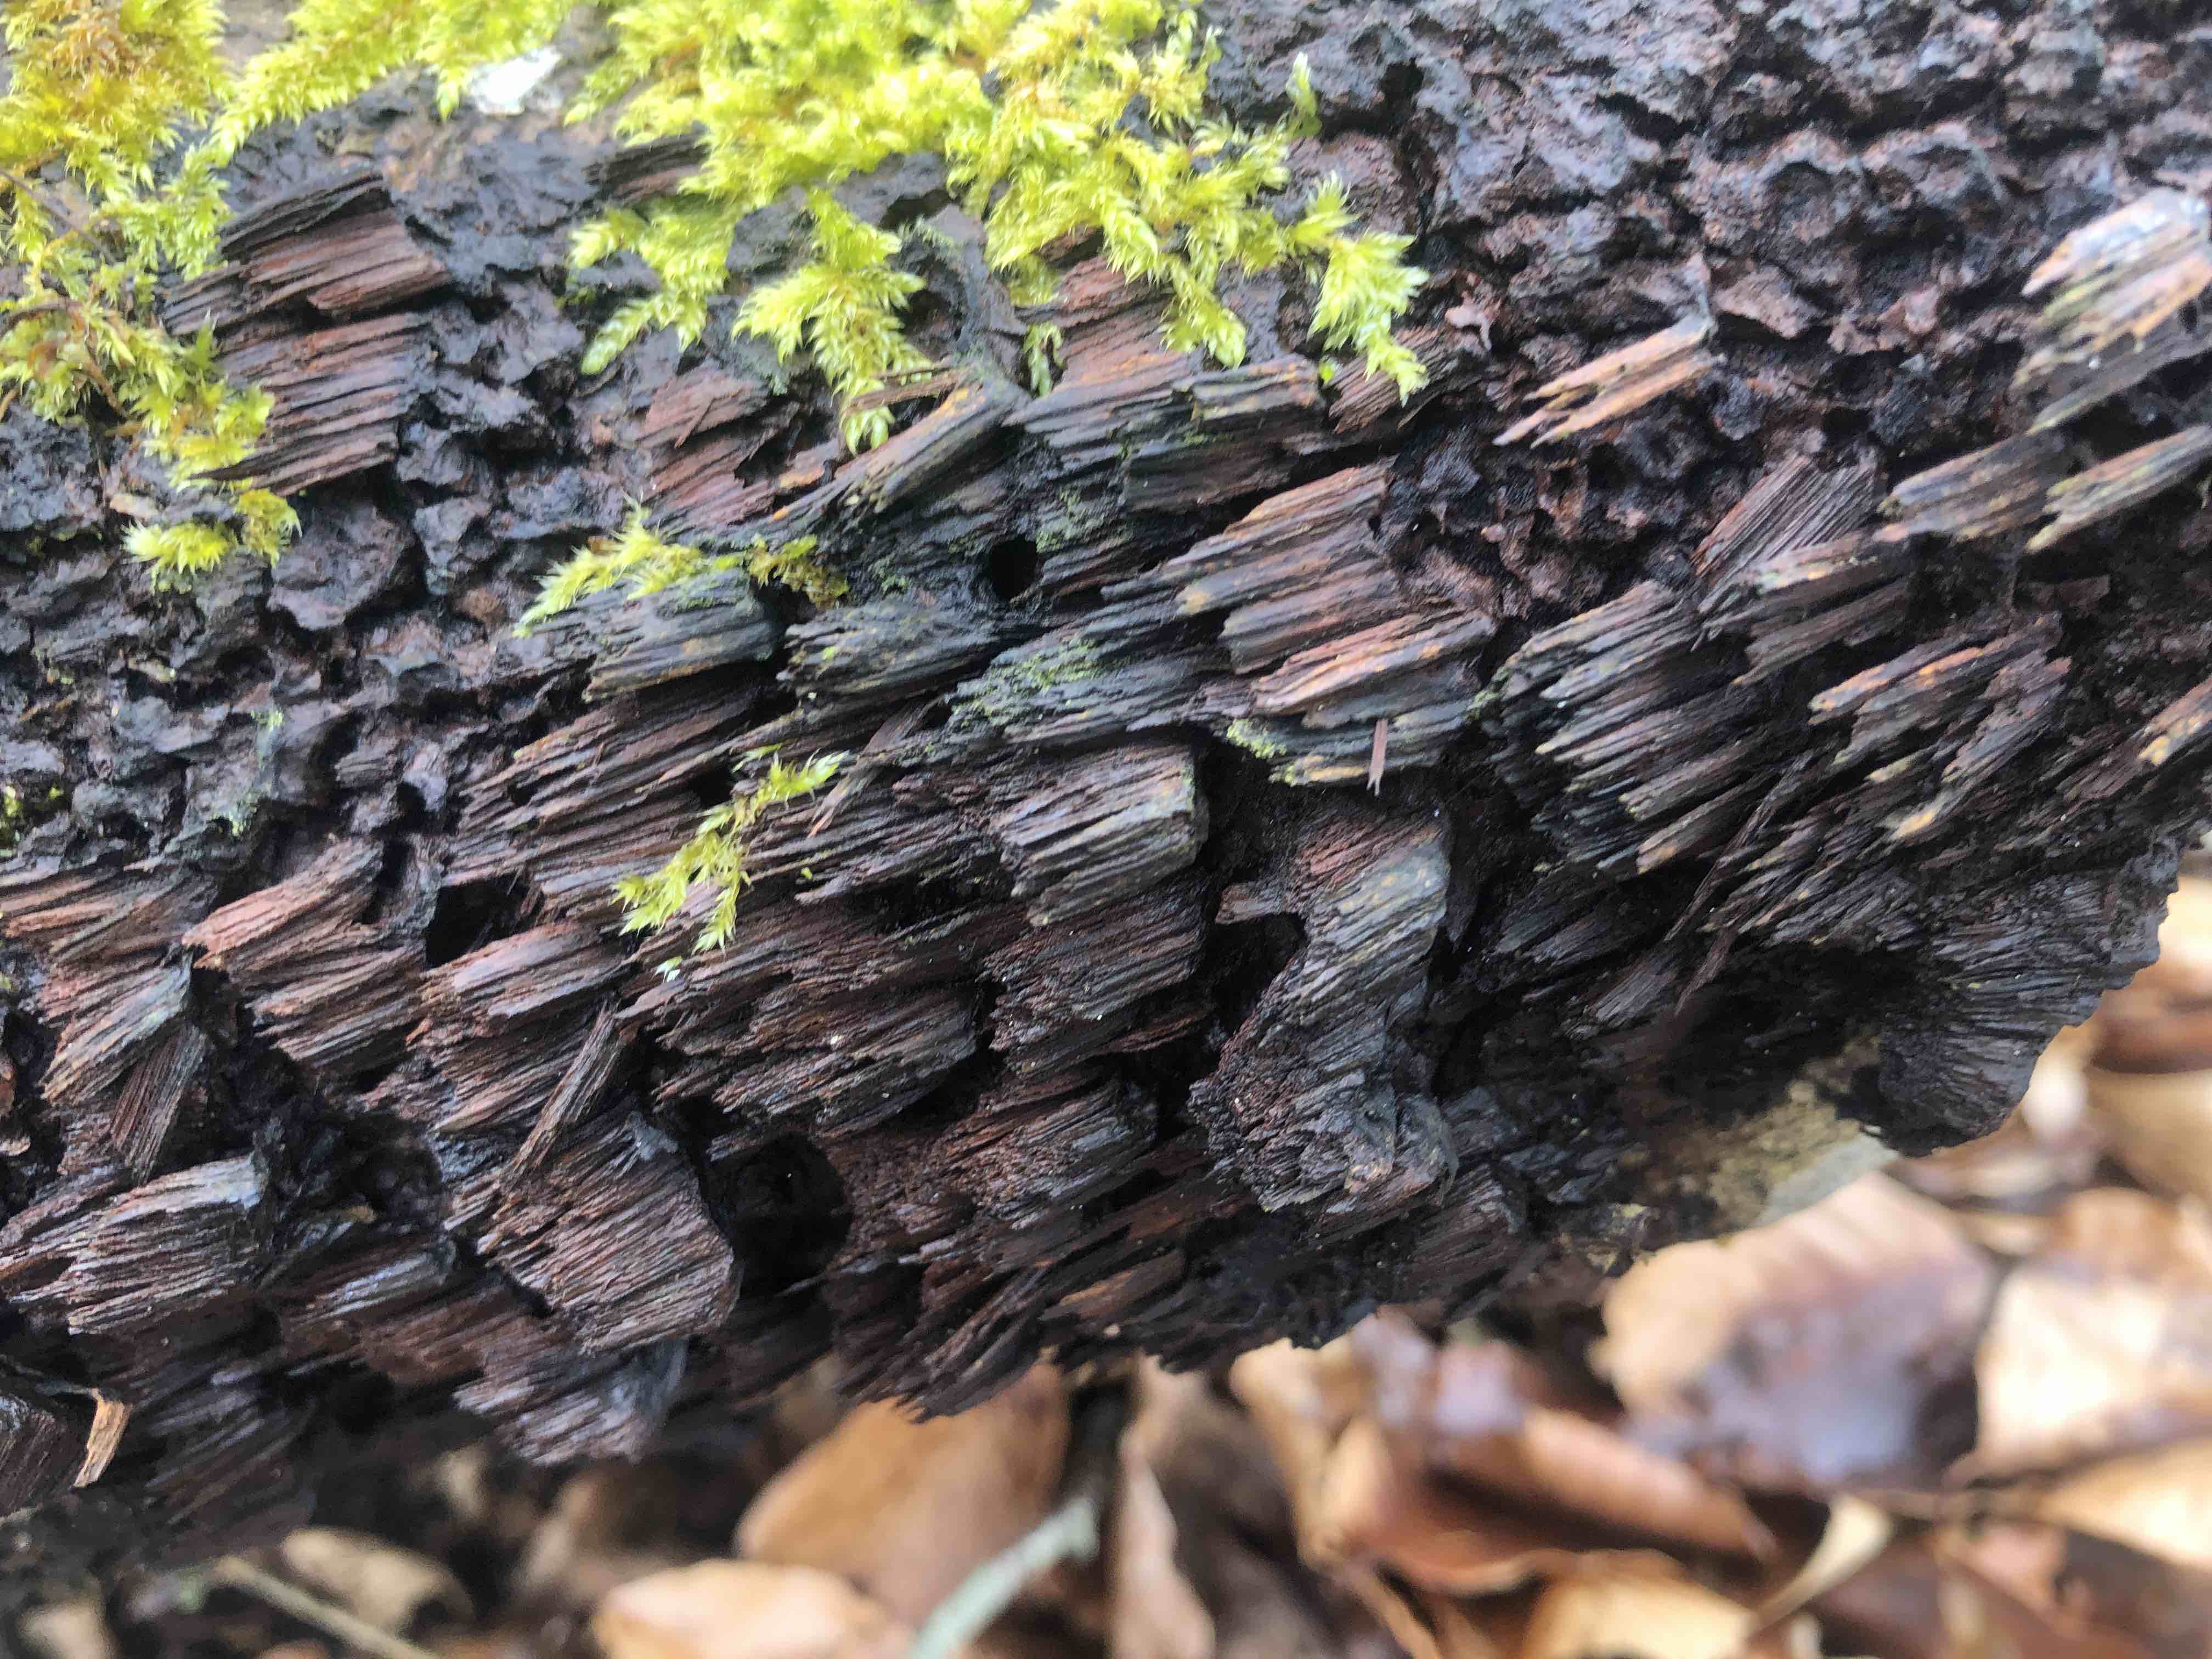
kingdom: Fungi
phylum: Basidiomycota
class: Agaricomycetes
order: Hymenochaetales
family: Hymenochaetaceae
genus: Mensularia
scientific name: Mensularia nodulosa
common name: bøge-spejlporesvamp
